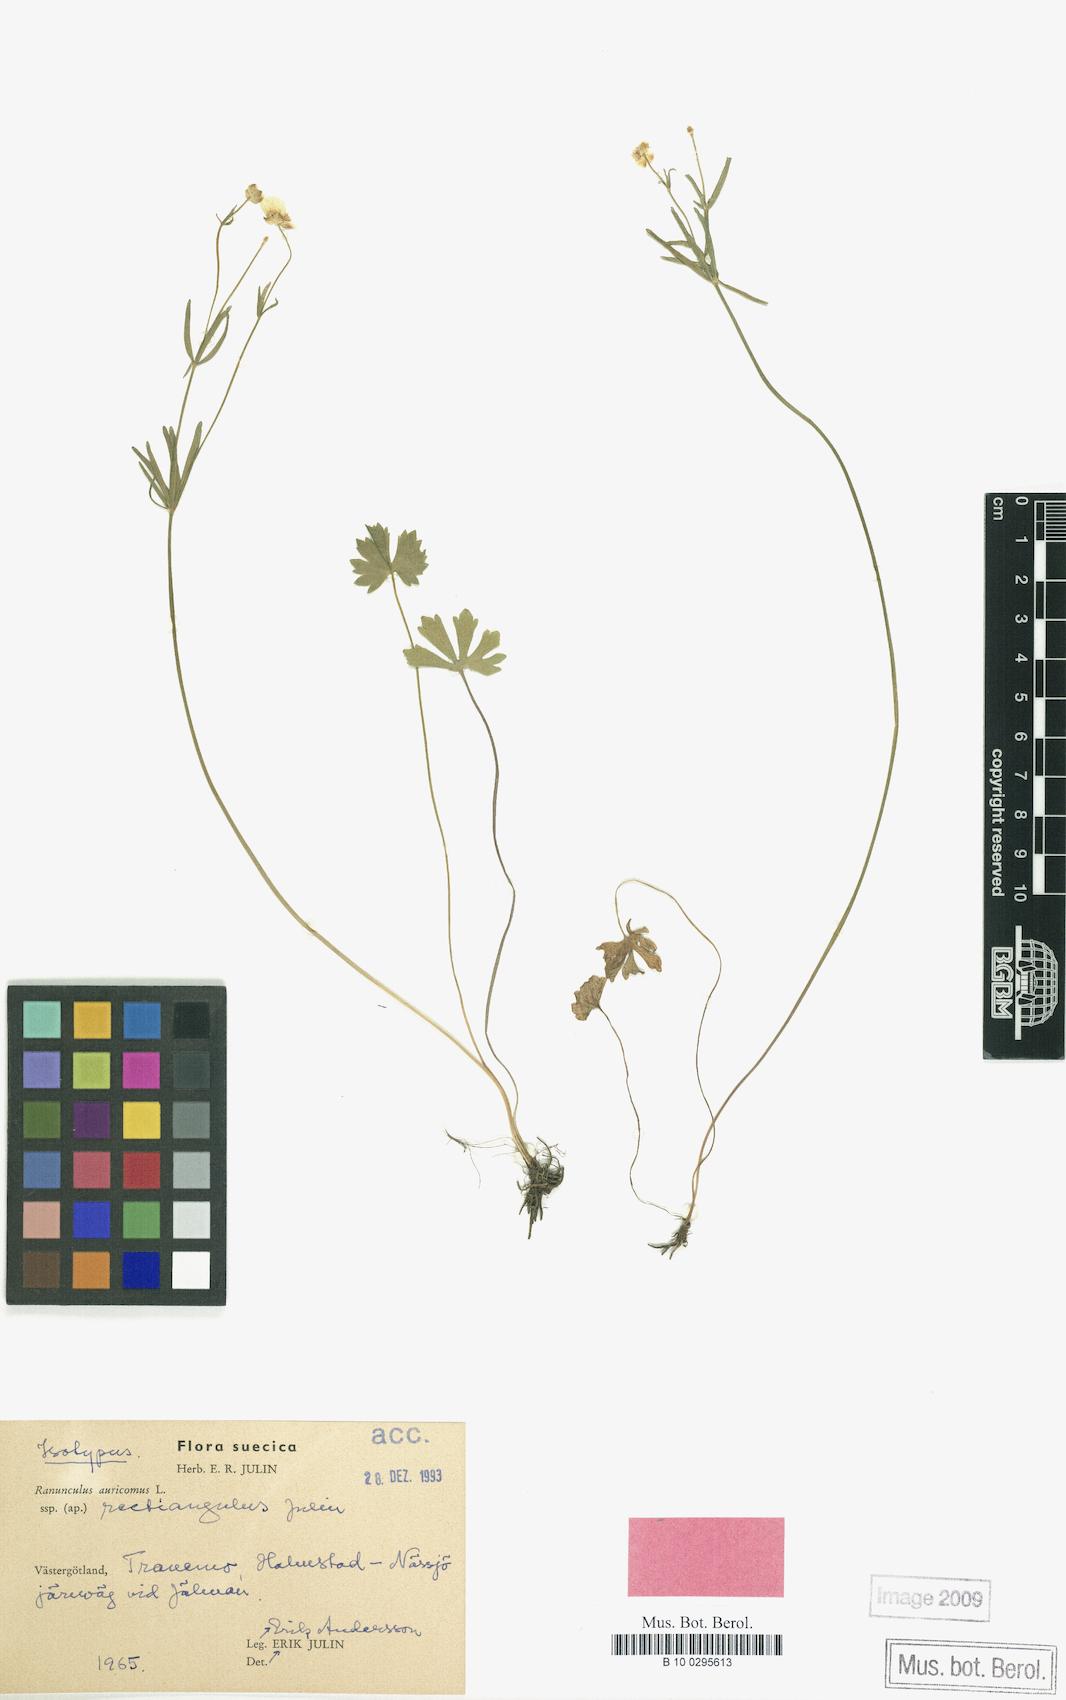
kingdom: Plantae
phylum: Tracheophyta
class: Magnoliopsida
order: Ranunculales
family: Ranunculaceae
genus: Ranunculus
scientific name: Ranunculus rectiangulus
